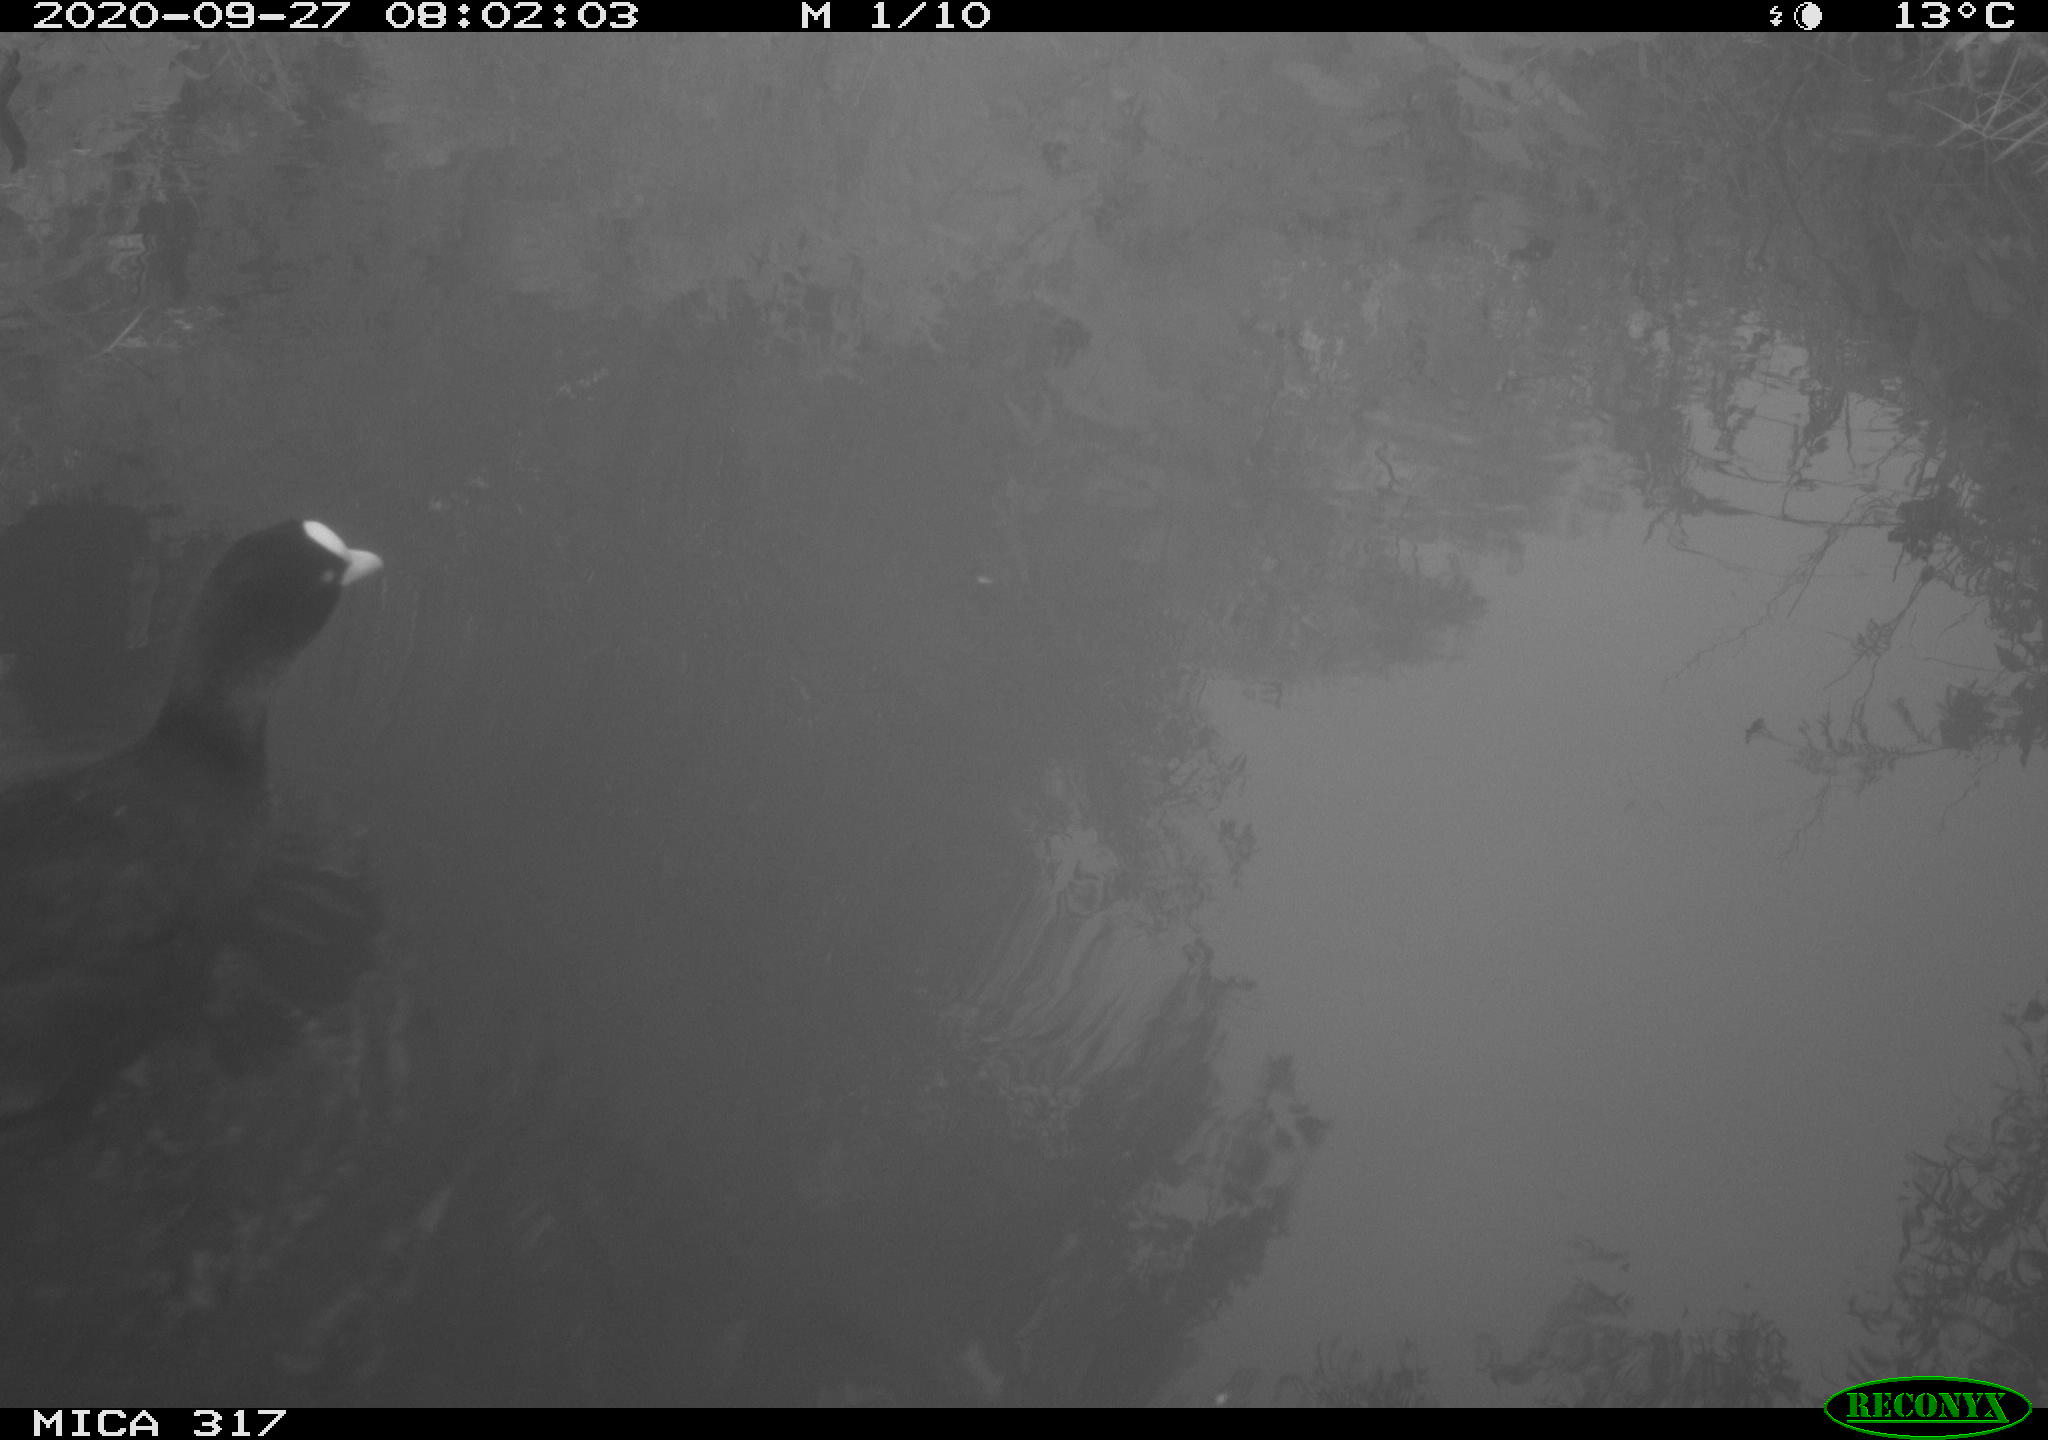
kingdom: Animalia
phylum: Chordata
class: Aves
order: Gruiformes
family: Rallidae
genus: Fulica
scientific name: Fulica atra
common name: Eurasian coot
